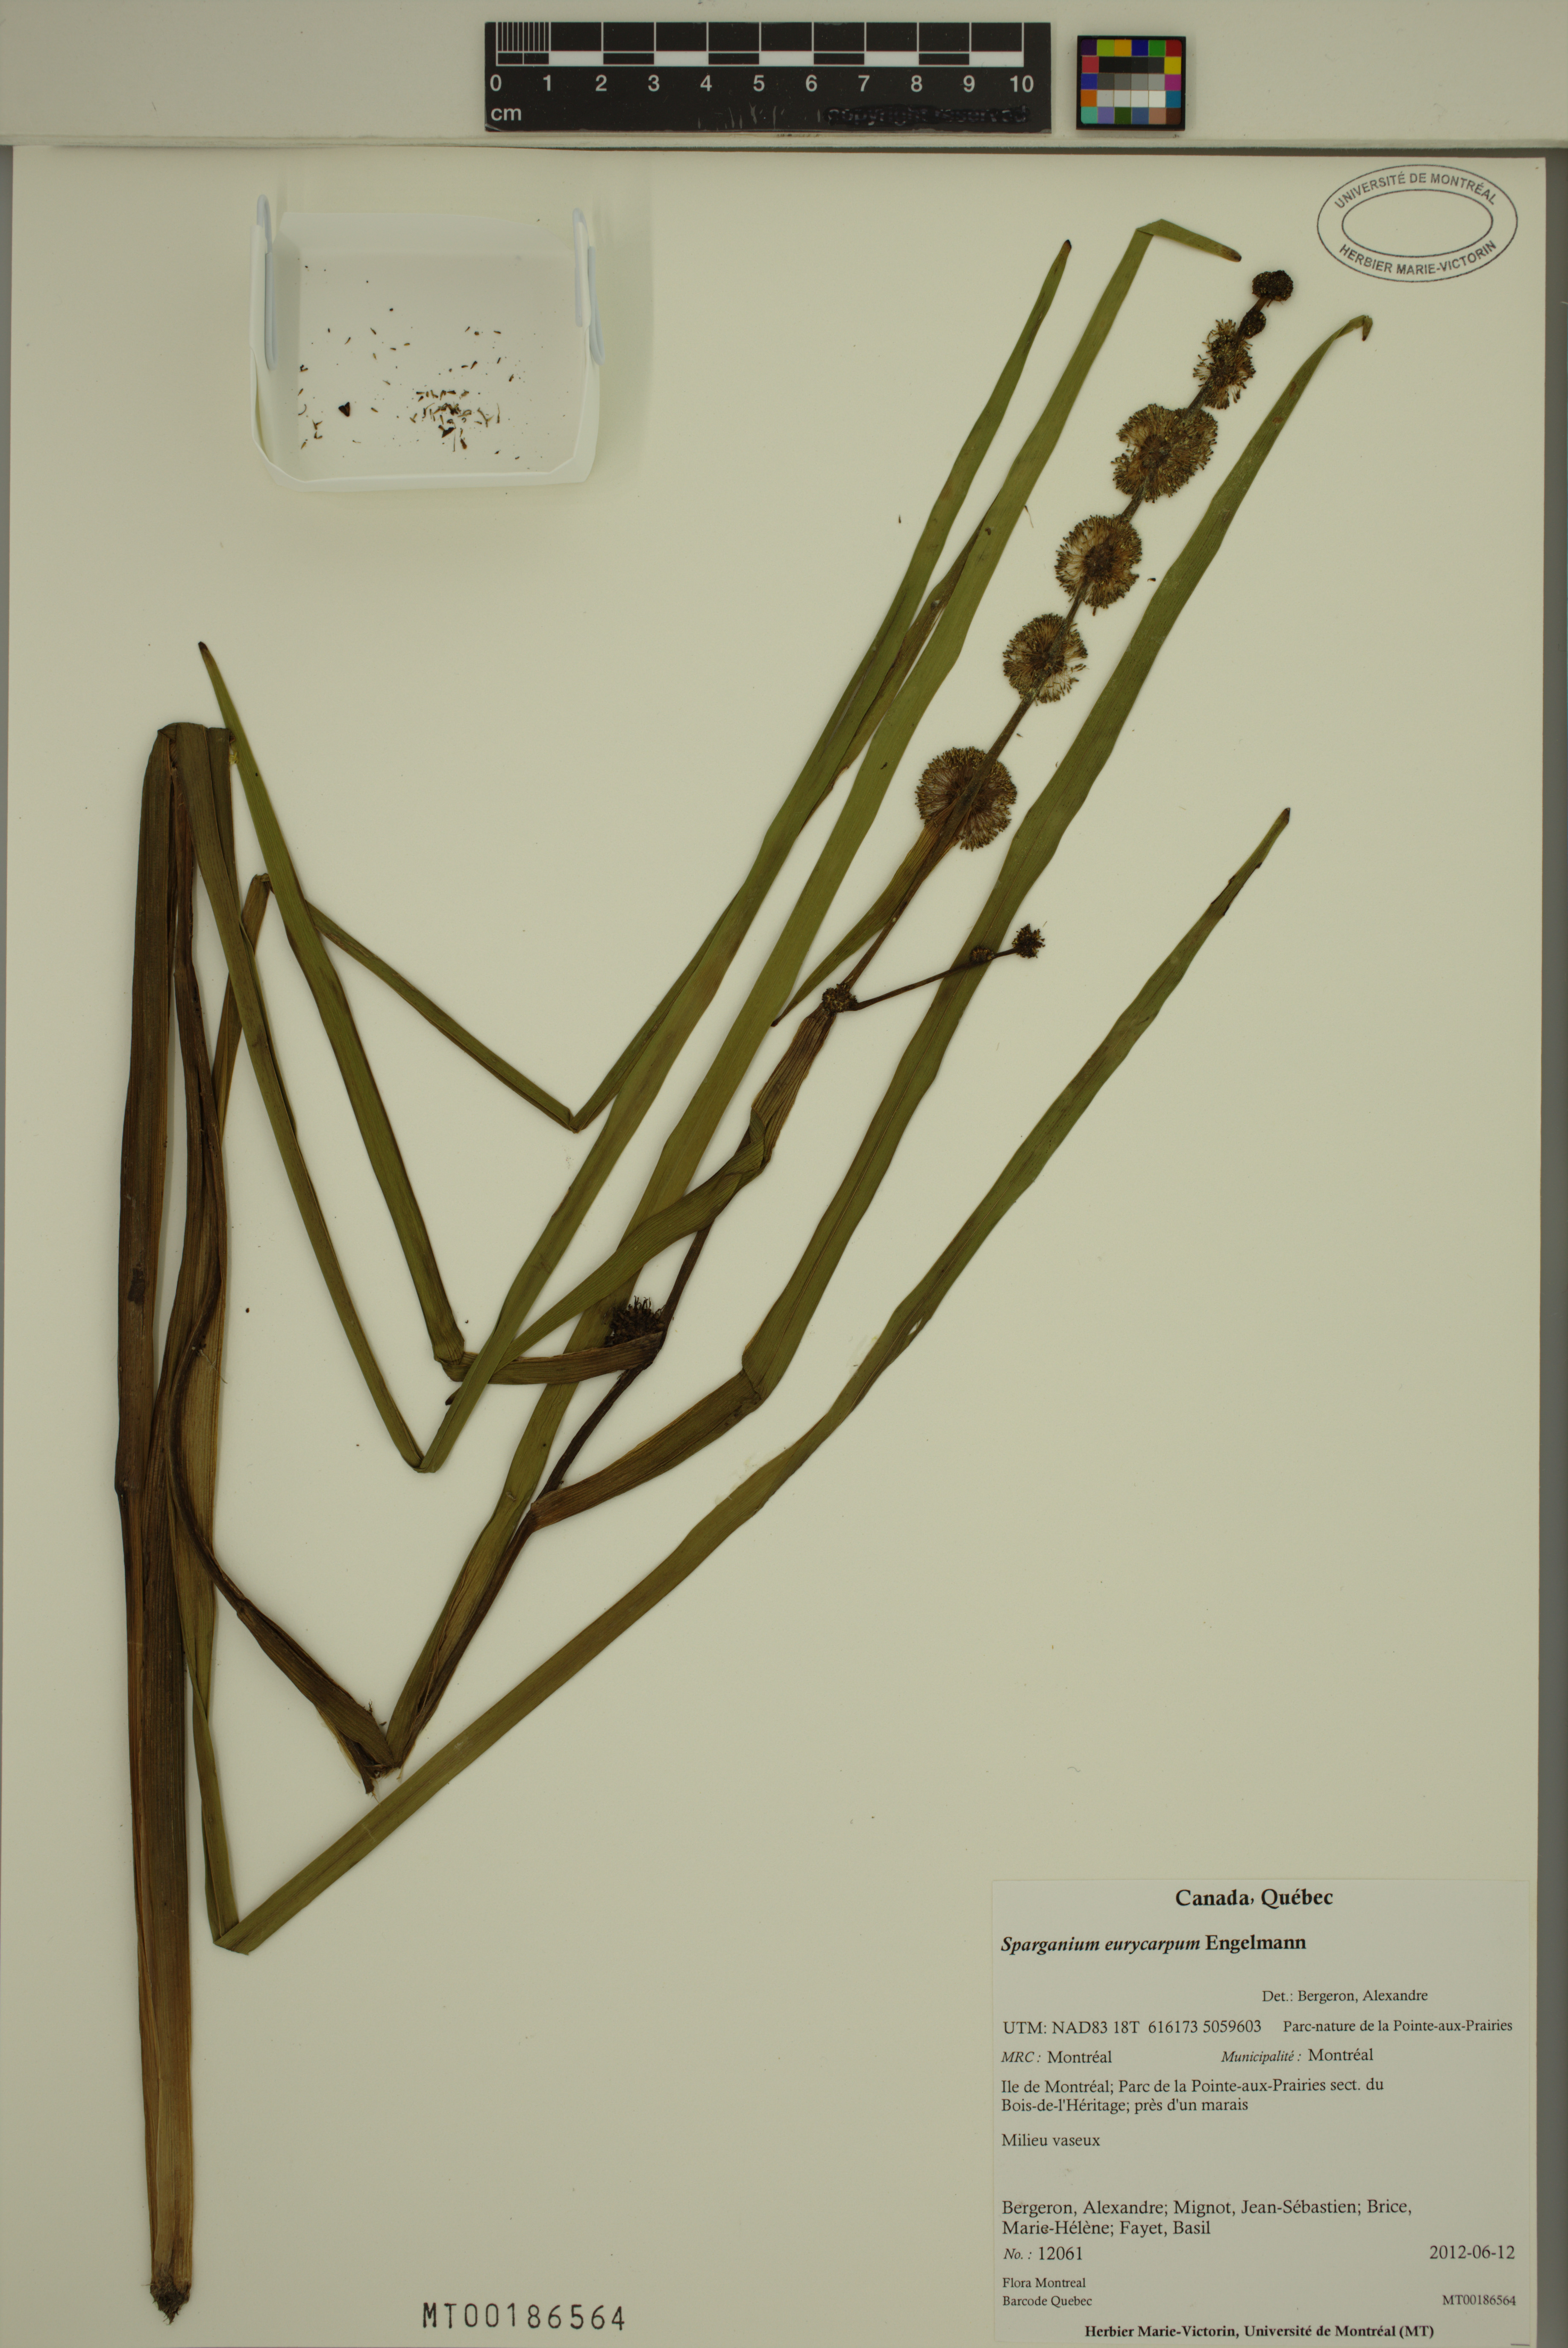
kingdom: Plantae
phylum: Tracheophyta
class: Liliopsida
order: Poales
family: Typhaceae
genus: Sparganium
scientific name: Sparganium eurycarpum
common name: Broad-fruited burreed
